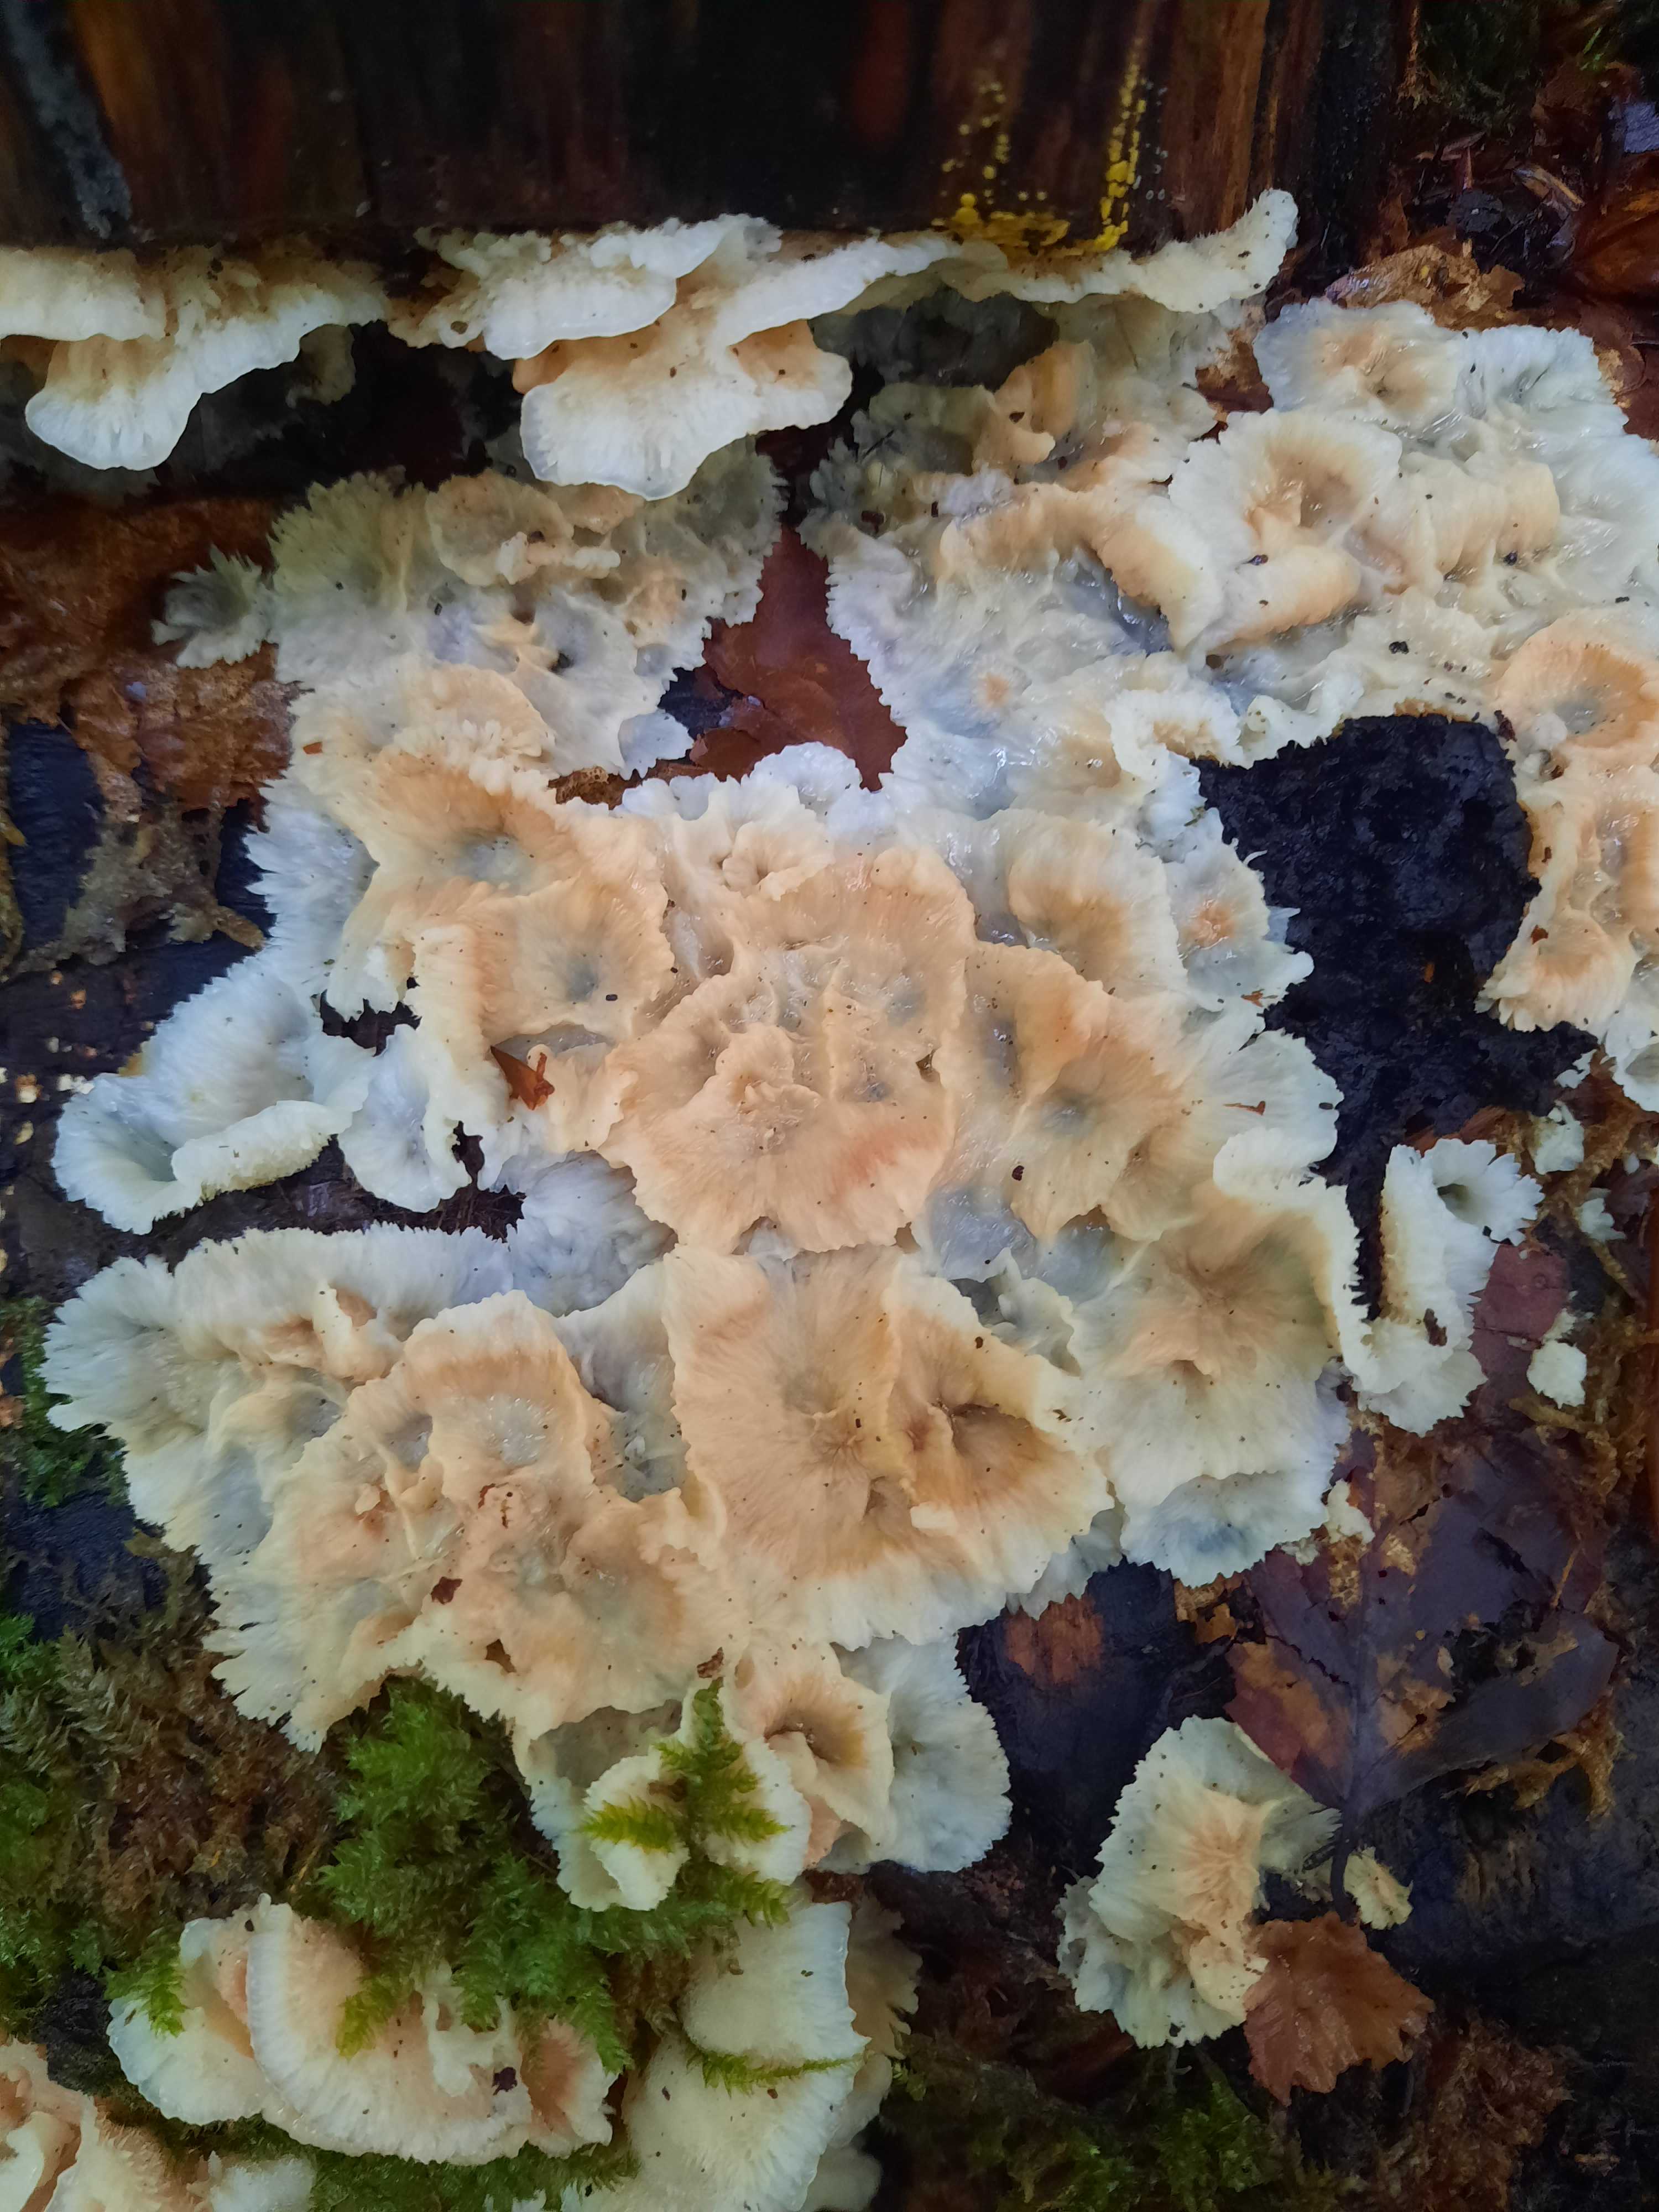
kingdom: Fungi
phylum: Basidiomycota
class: Agaricomycetes
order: Polyporales
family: Meruliaceae
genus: Phlebia
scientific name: Phlebia tremellosa
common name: bævrende åresvamp
